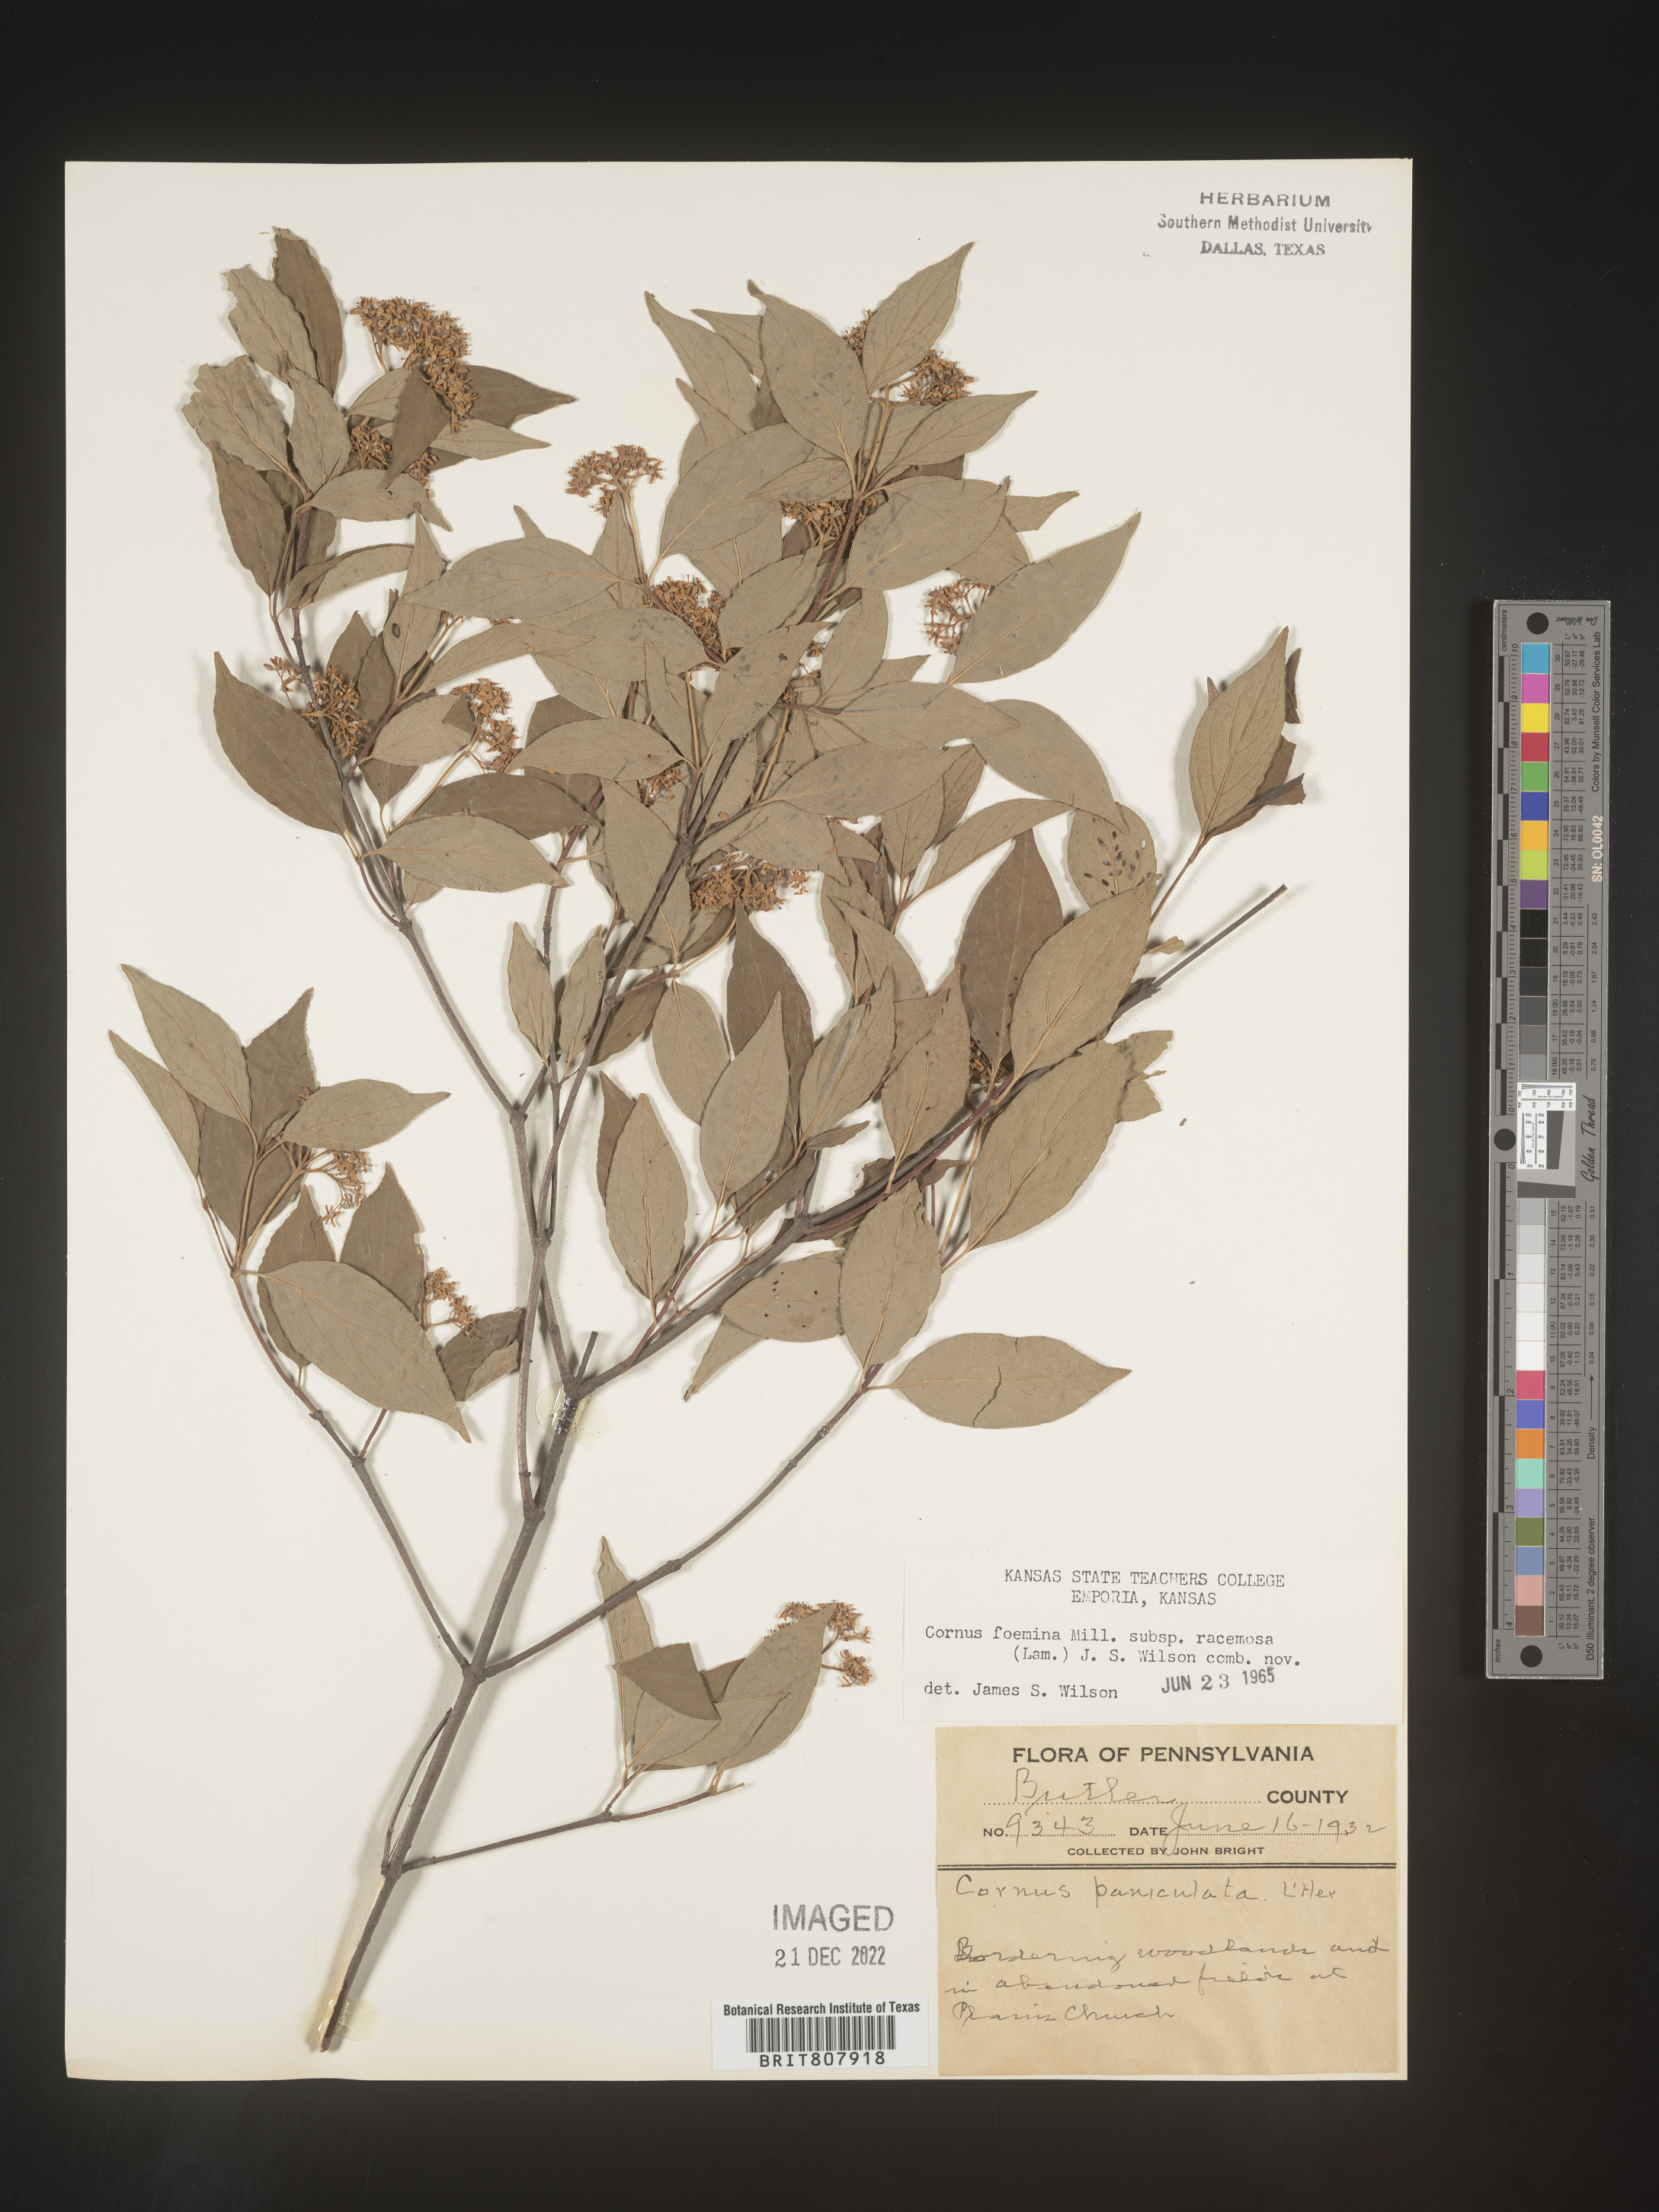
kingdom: Plantae
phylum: Tracheophyta
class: Magnoliopsida
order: Cornales
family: Cornaceae
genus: Cornus
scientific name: Cornus racemosa
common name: Panicled dogwood
